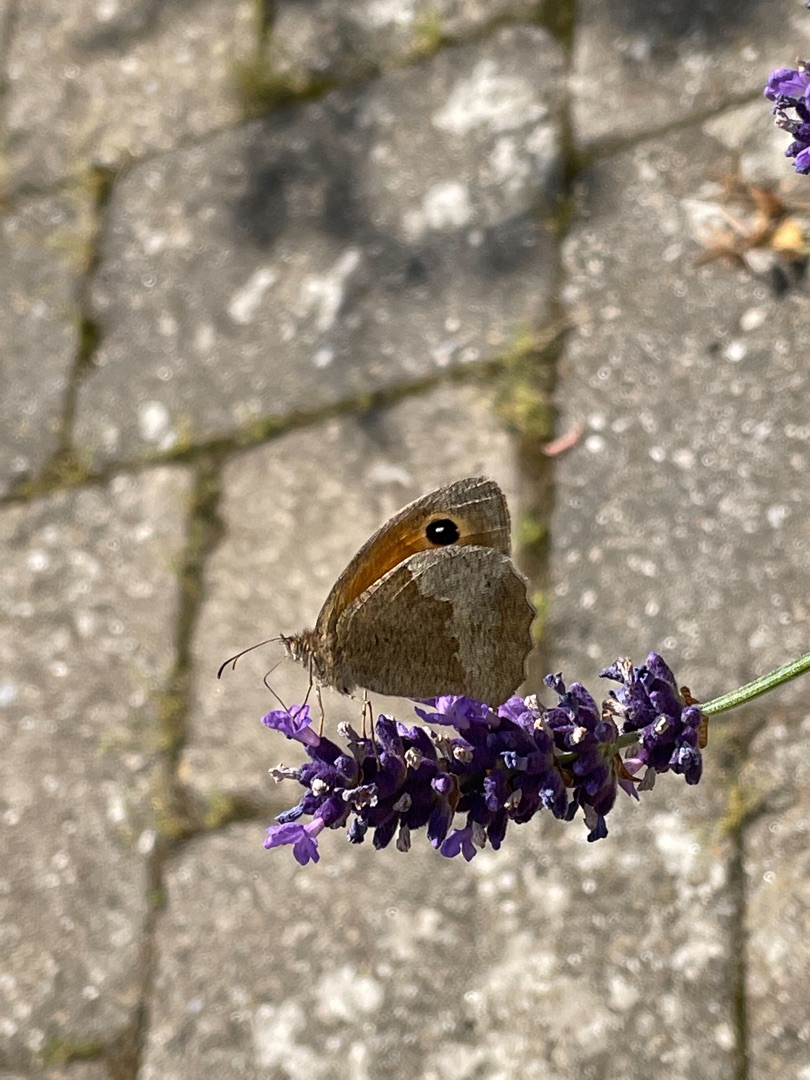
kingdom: Animalia
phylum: Arthropoda
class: Insecta
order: Lepidoptera
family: Nymphalidae
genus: Maniola
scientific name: Maniola jurtina
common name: Græsrandøje
